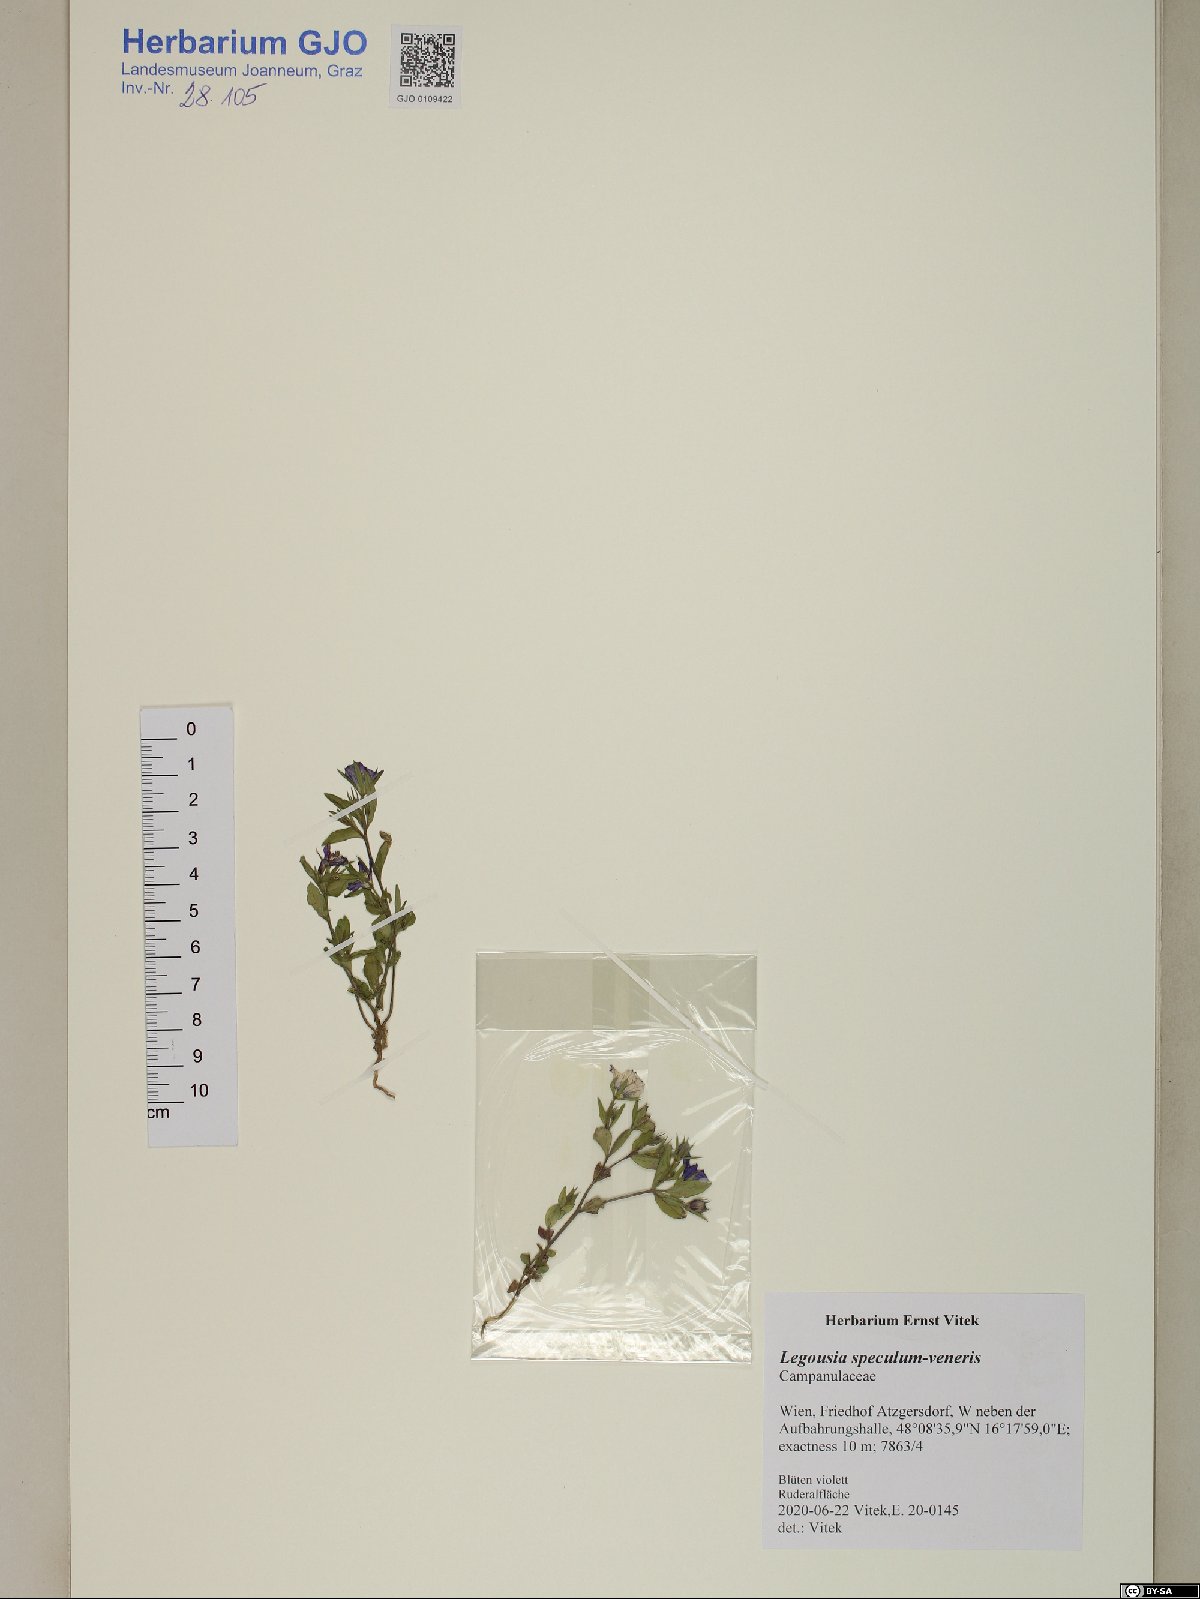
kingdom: Plantae
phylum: Tracheophyta
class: Magnoliopsida
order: Asterales
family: Campanulaceae
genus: Legousia
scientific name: Legousia speculum-veneris
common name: Large venus's-looking-glass
